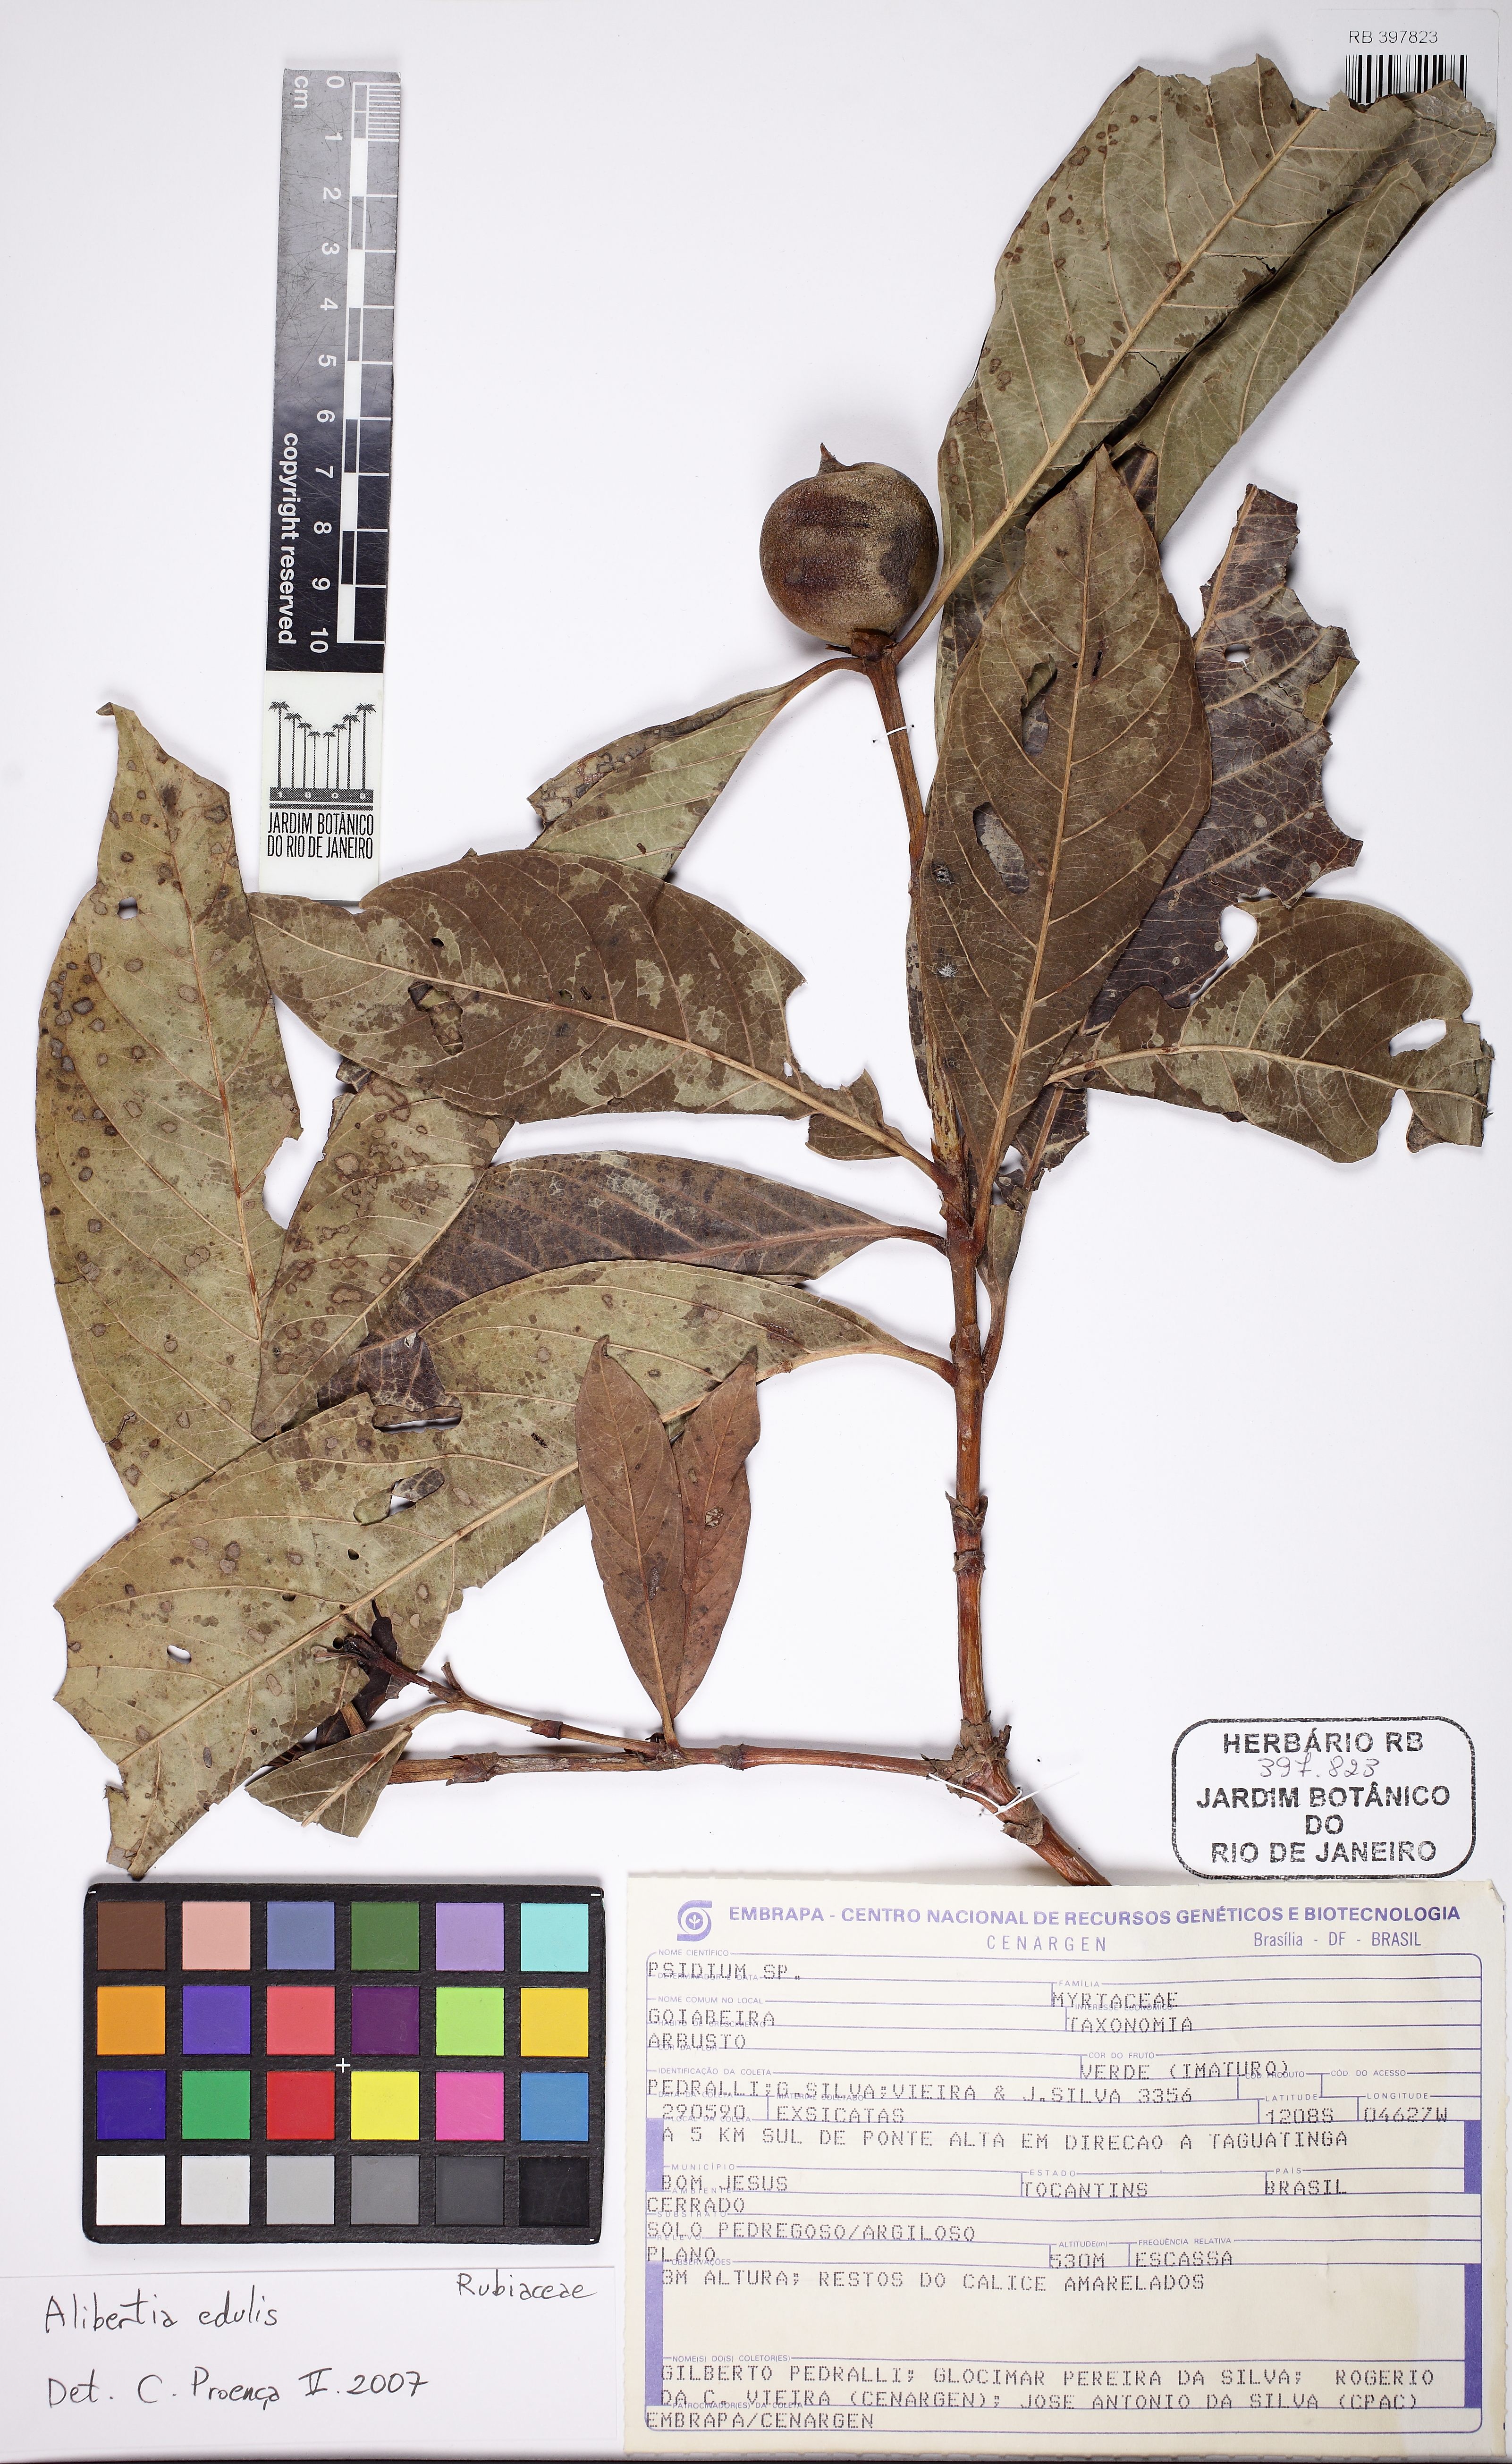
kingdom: Plantae
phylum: Tracheophyta
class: Magnoliopsida
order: Gentianales
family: Rubiaceae
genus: Alibertia
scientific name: Alibertia edulis
